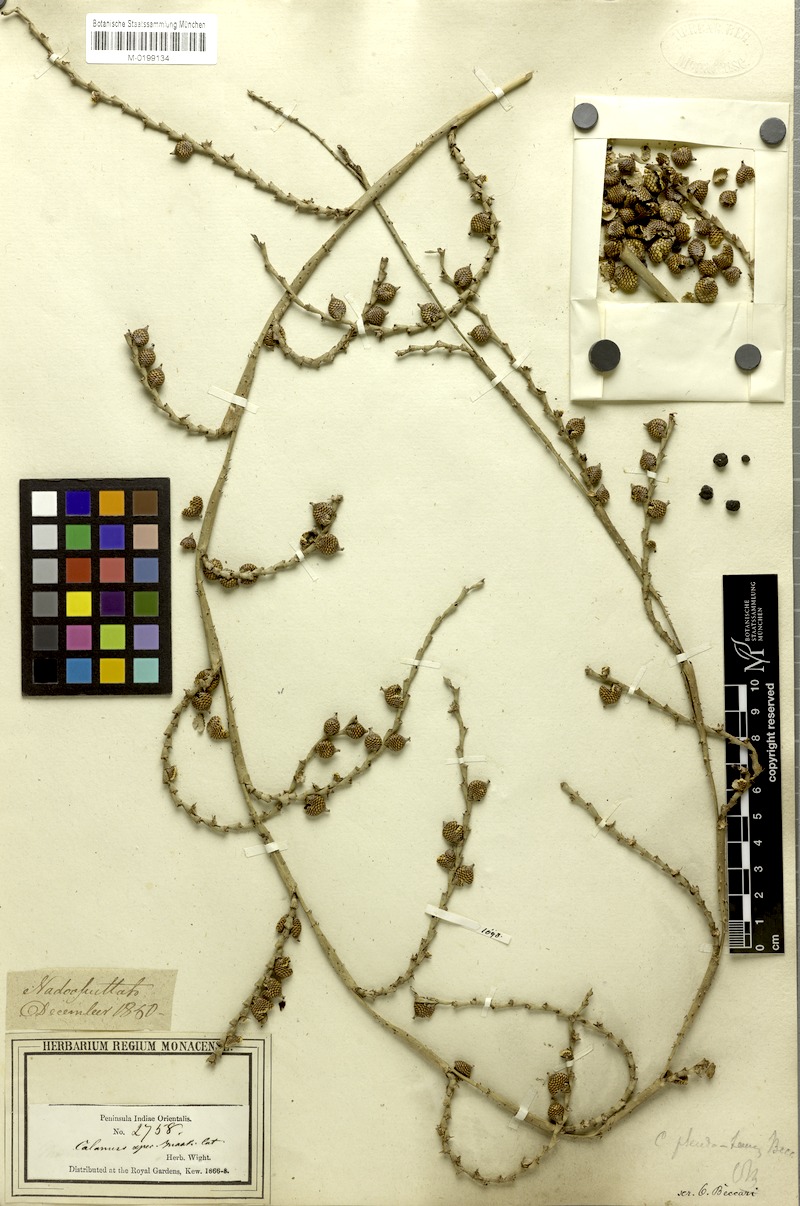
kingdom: Plantae
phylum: Tracheophyta
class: Liliopsida
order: Arecales
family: Arecaceae
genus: Calamus
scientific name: Calamus pseudotenuis
